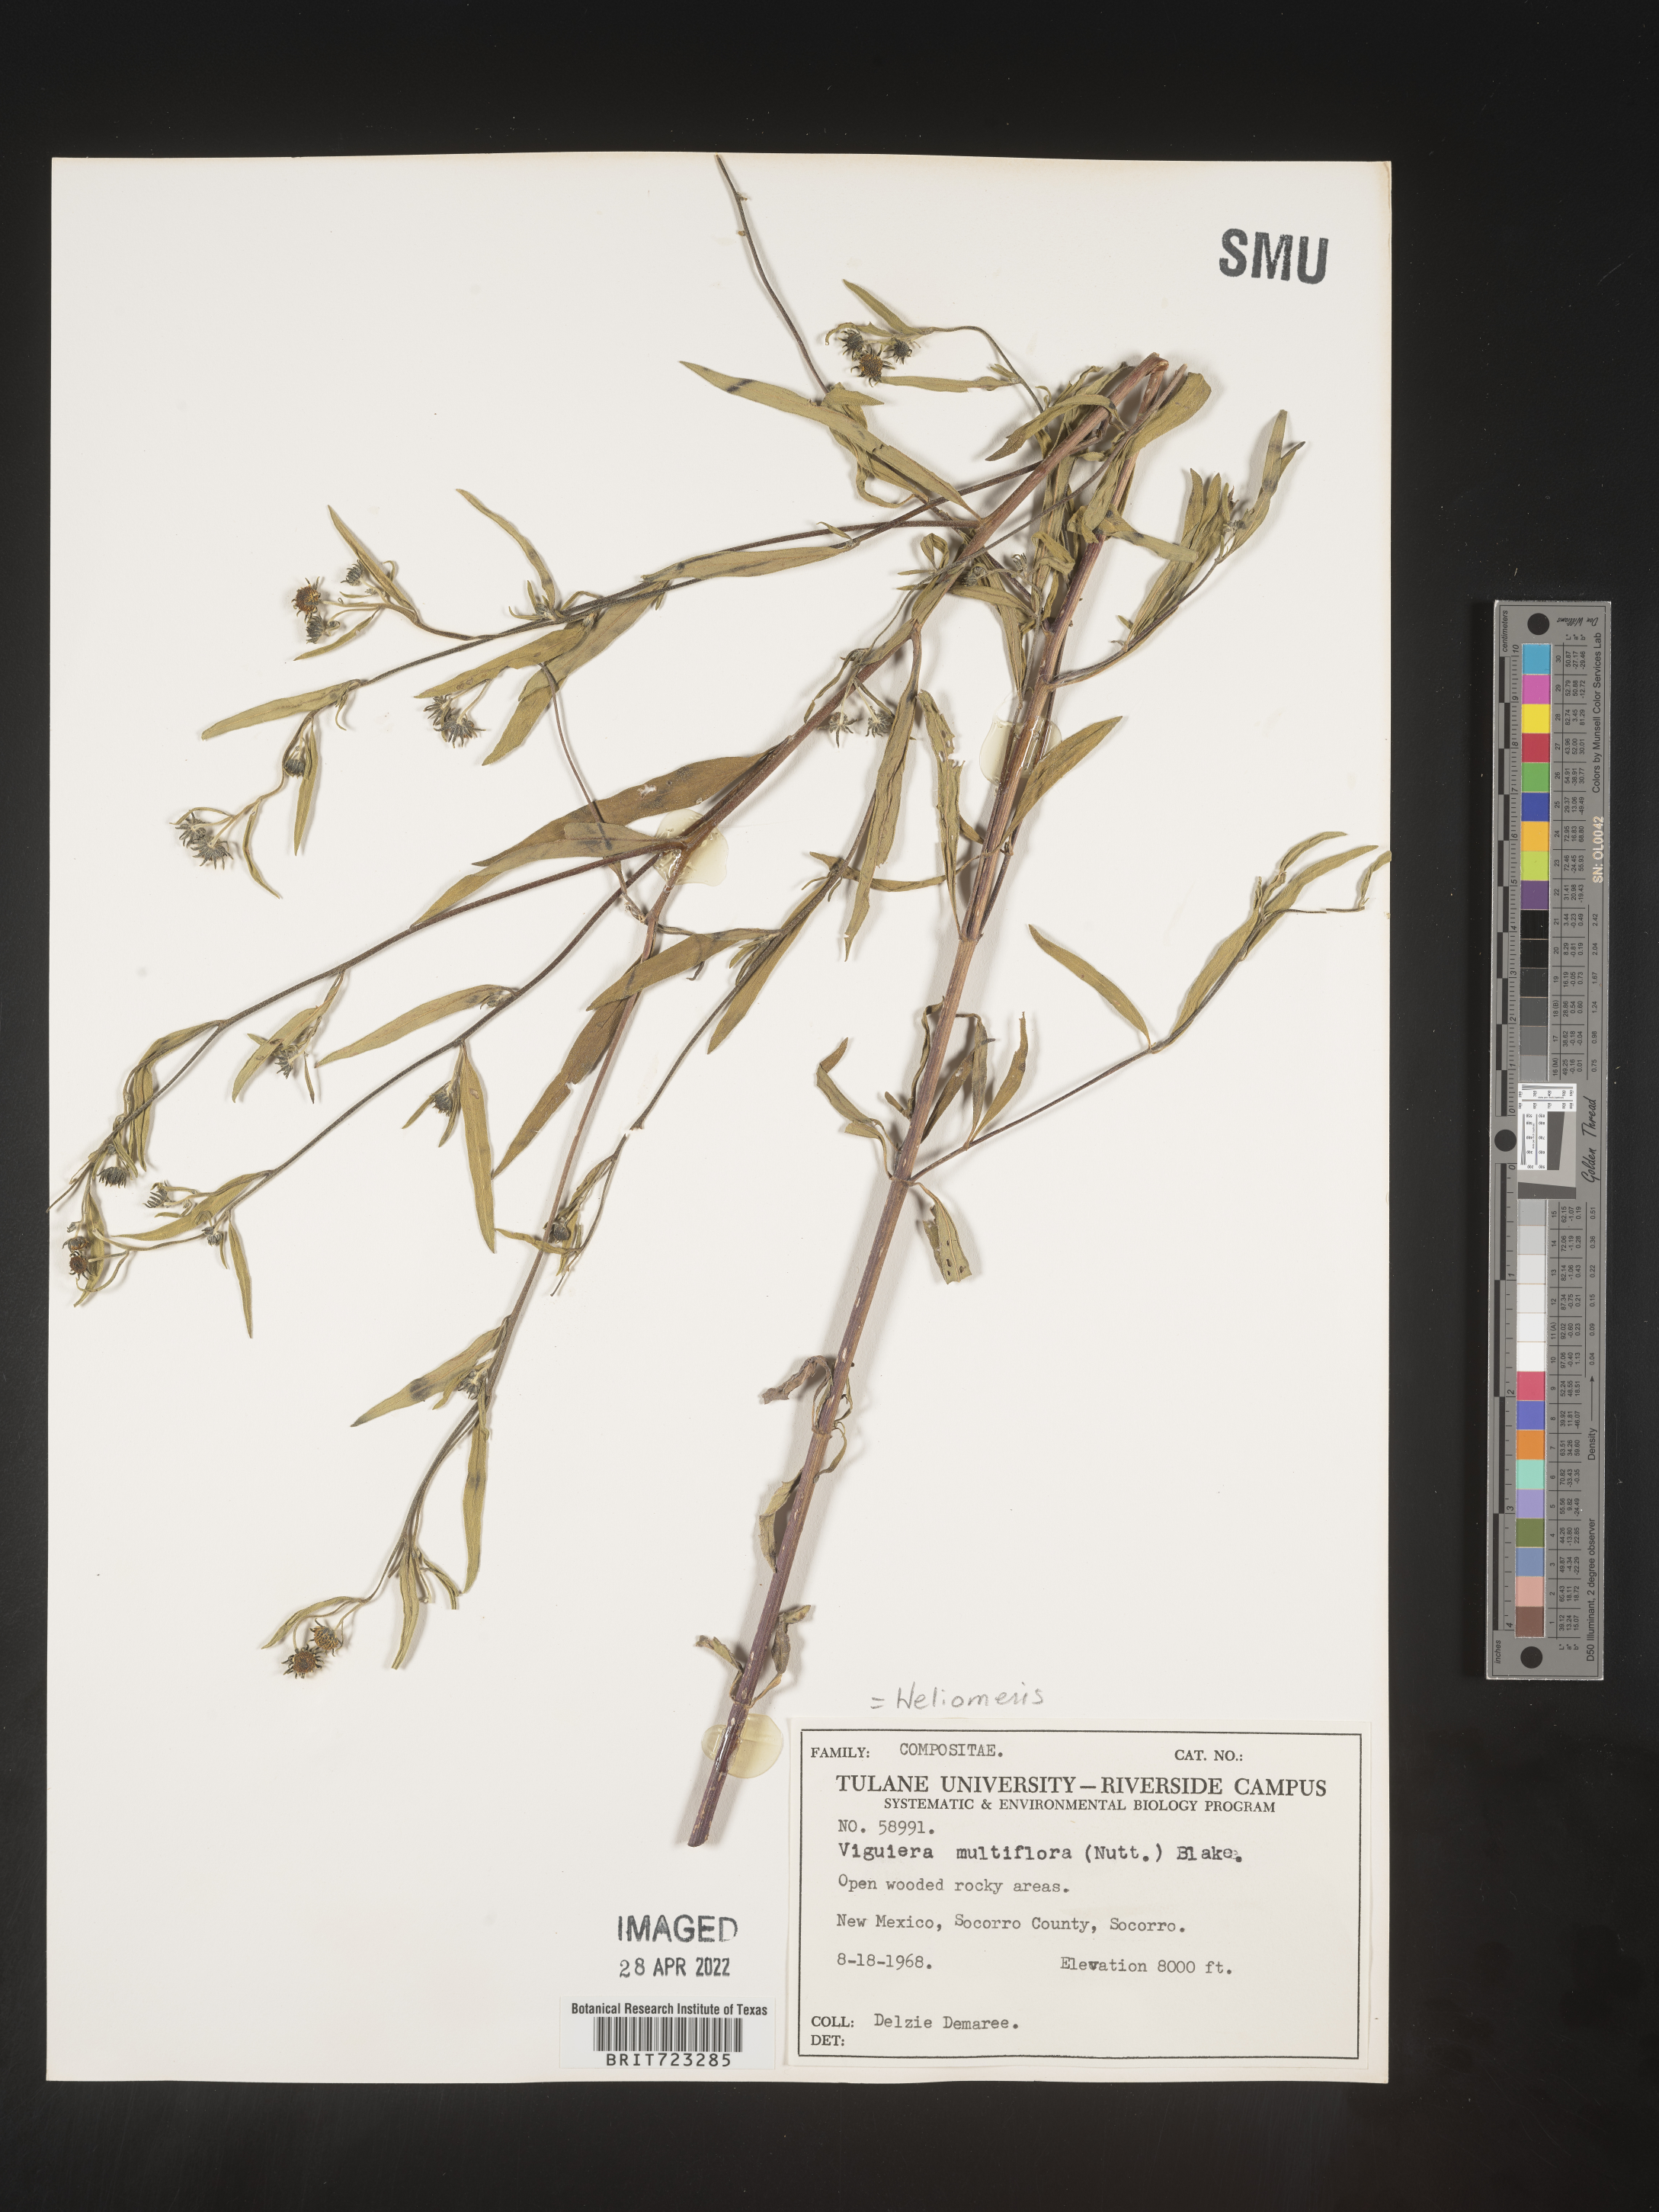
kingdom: Plantae
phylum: Tracheophyta
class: Magnoliopsida
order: Asterales
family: Asteraceae
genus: Heliomeris
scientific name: Heliomeris multiflora
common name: Showy goldeneye
